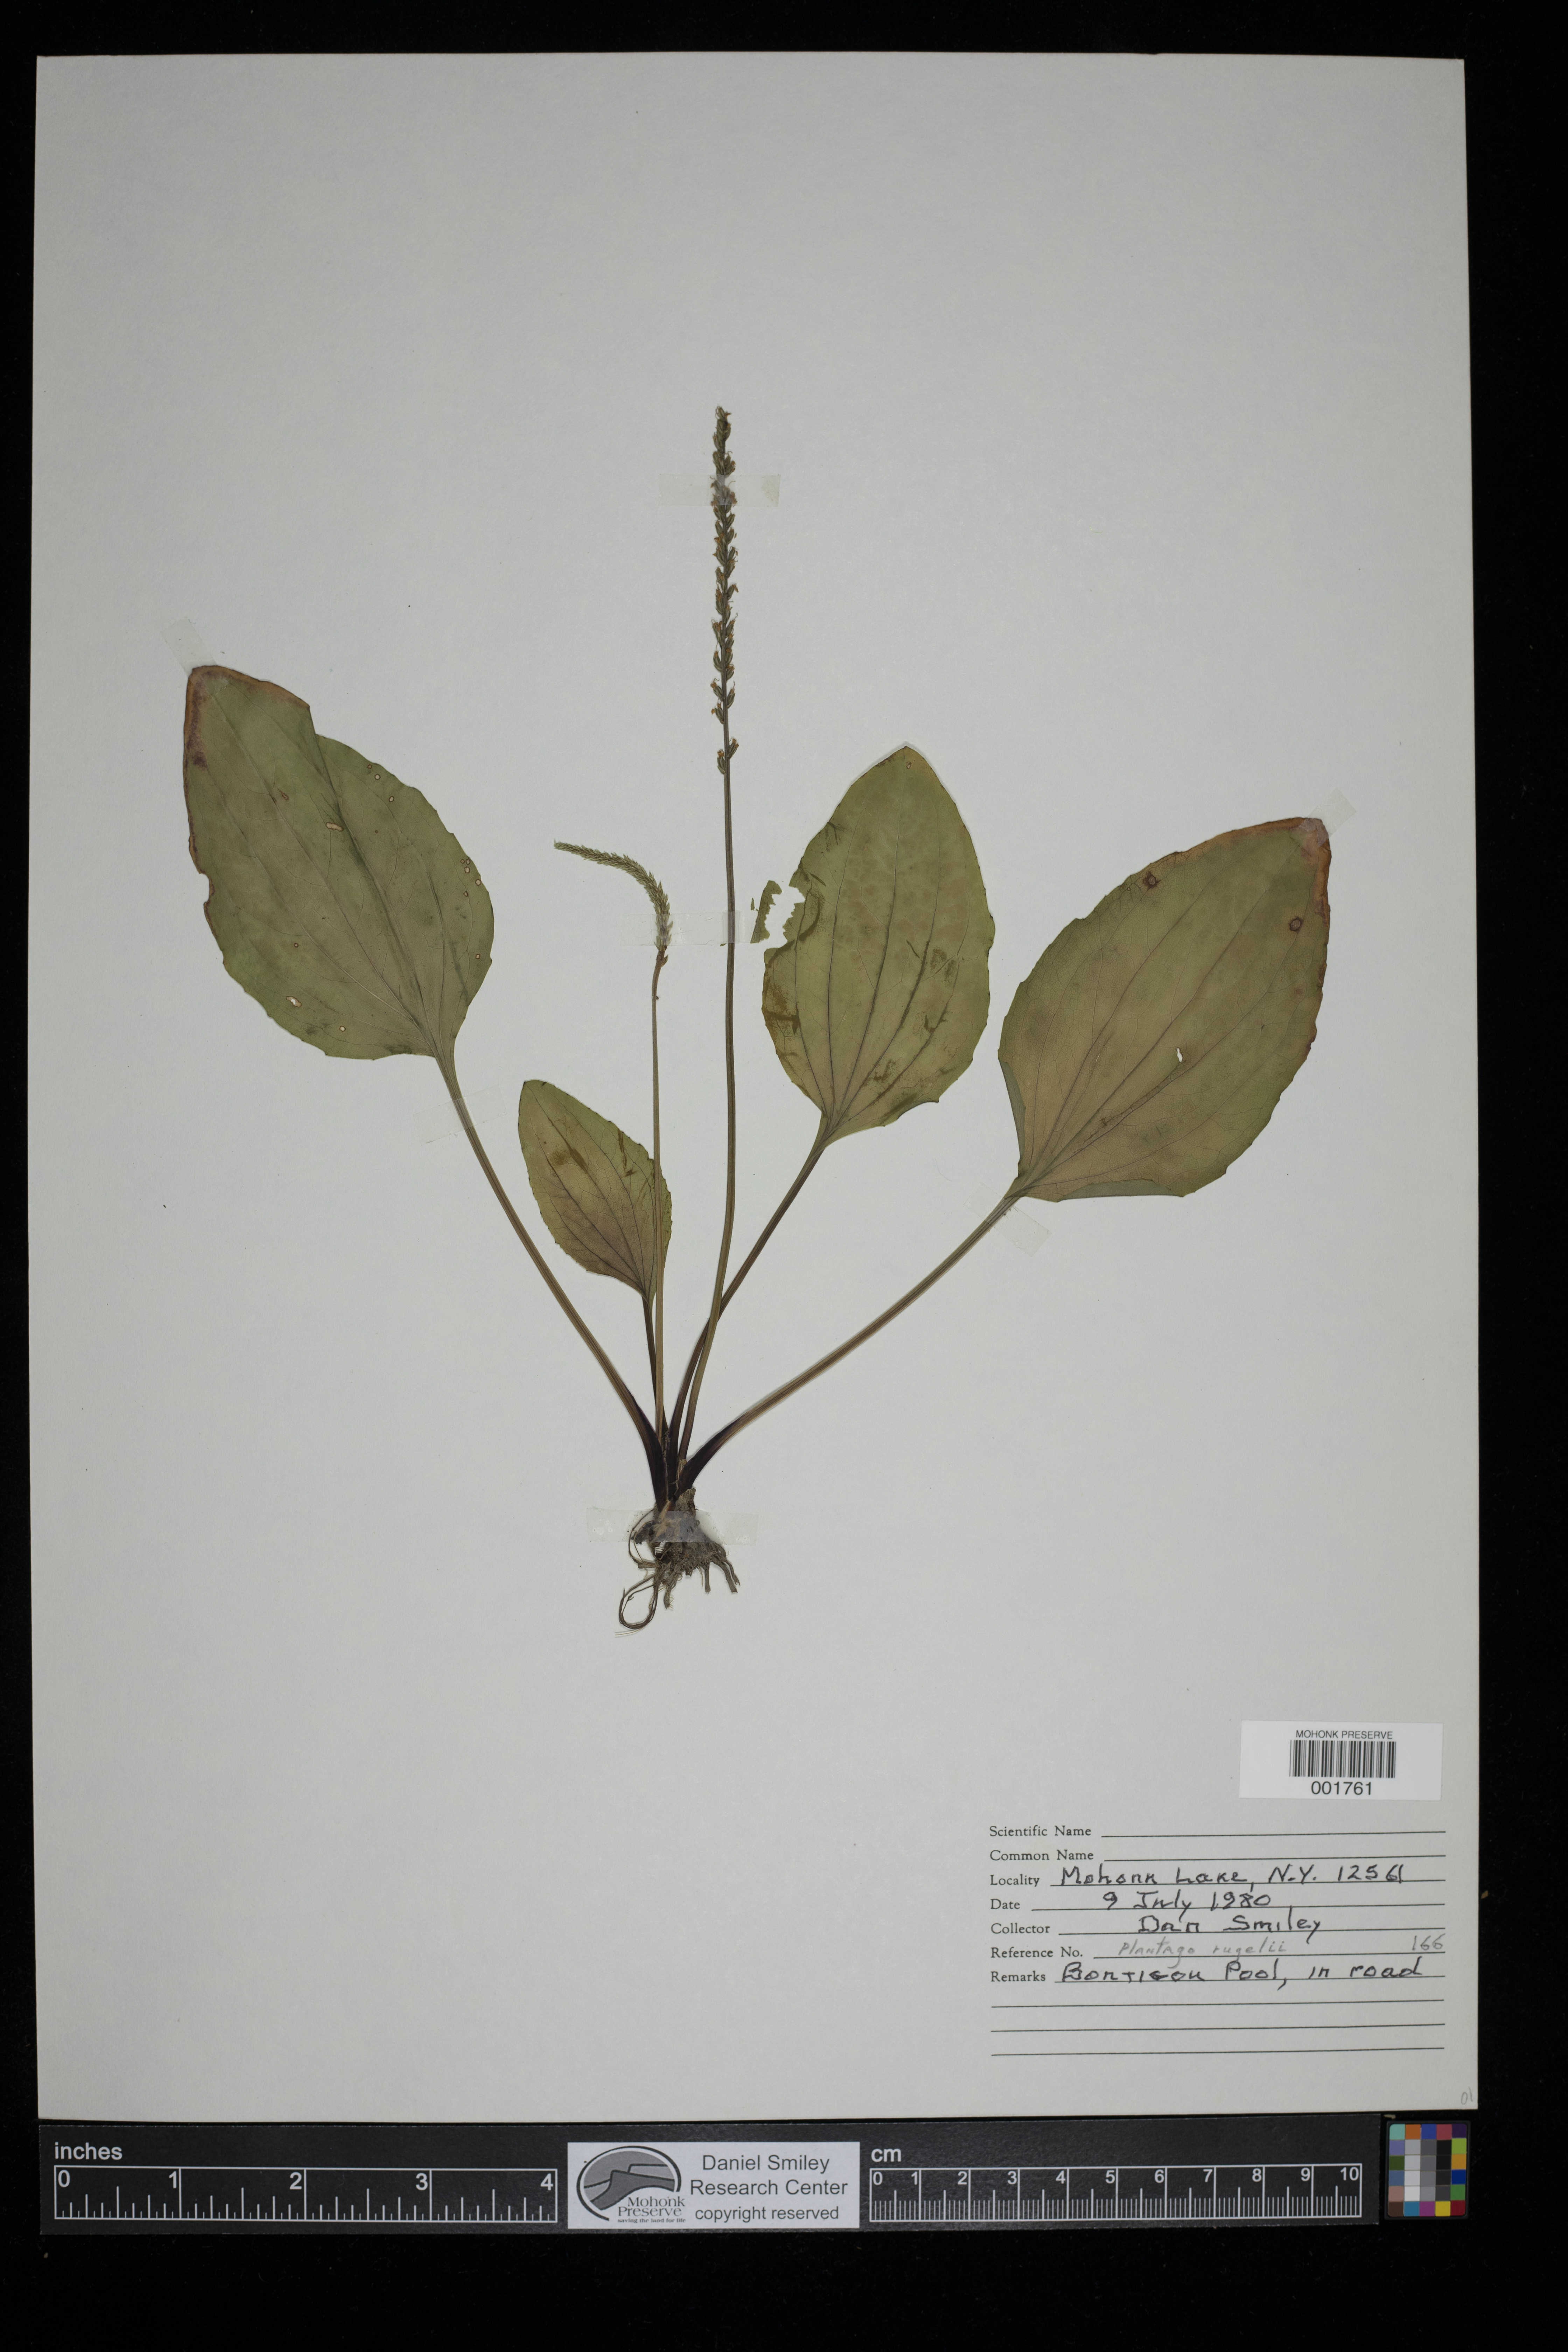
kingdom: Plantae
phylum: Tracheophyta
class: Magnoliopsida
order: Lamiales
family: Plantaginaceae
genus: Plantago
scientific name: Plantago rugelii
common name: American plantain
